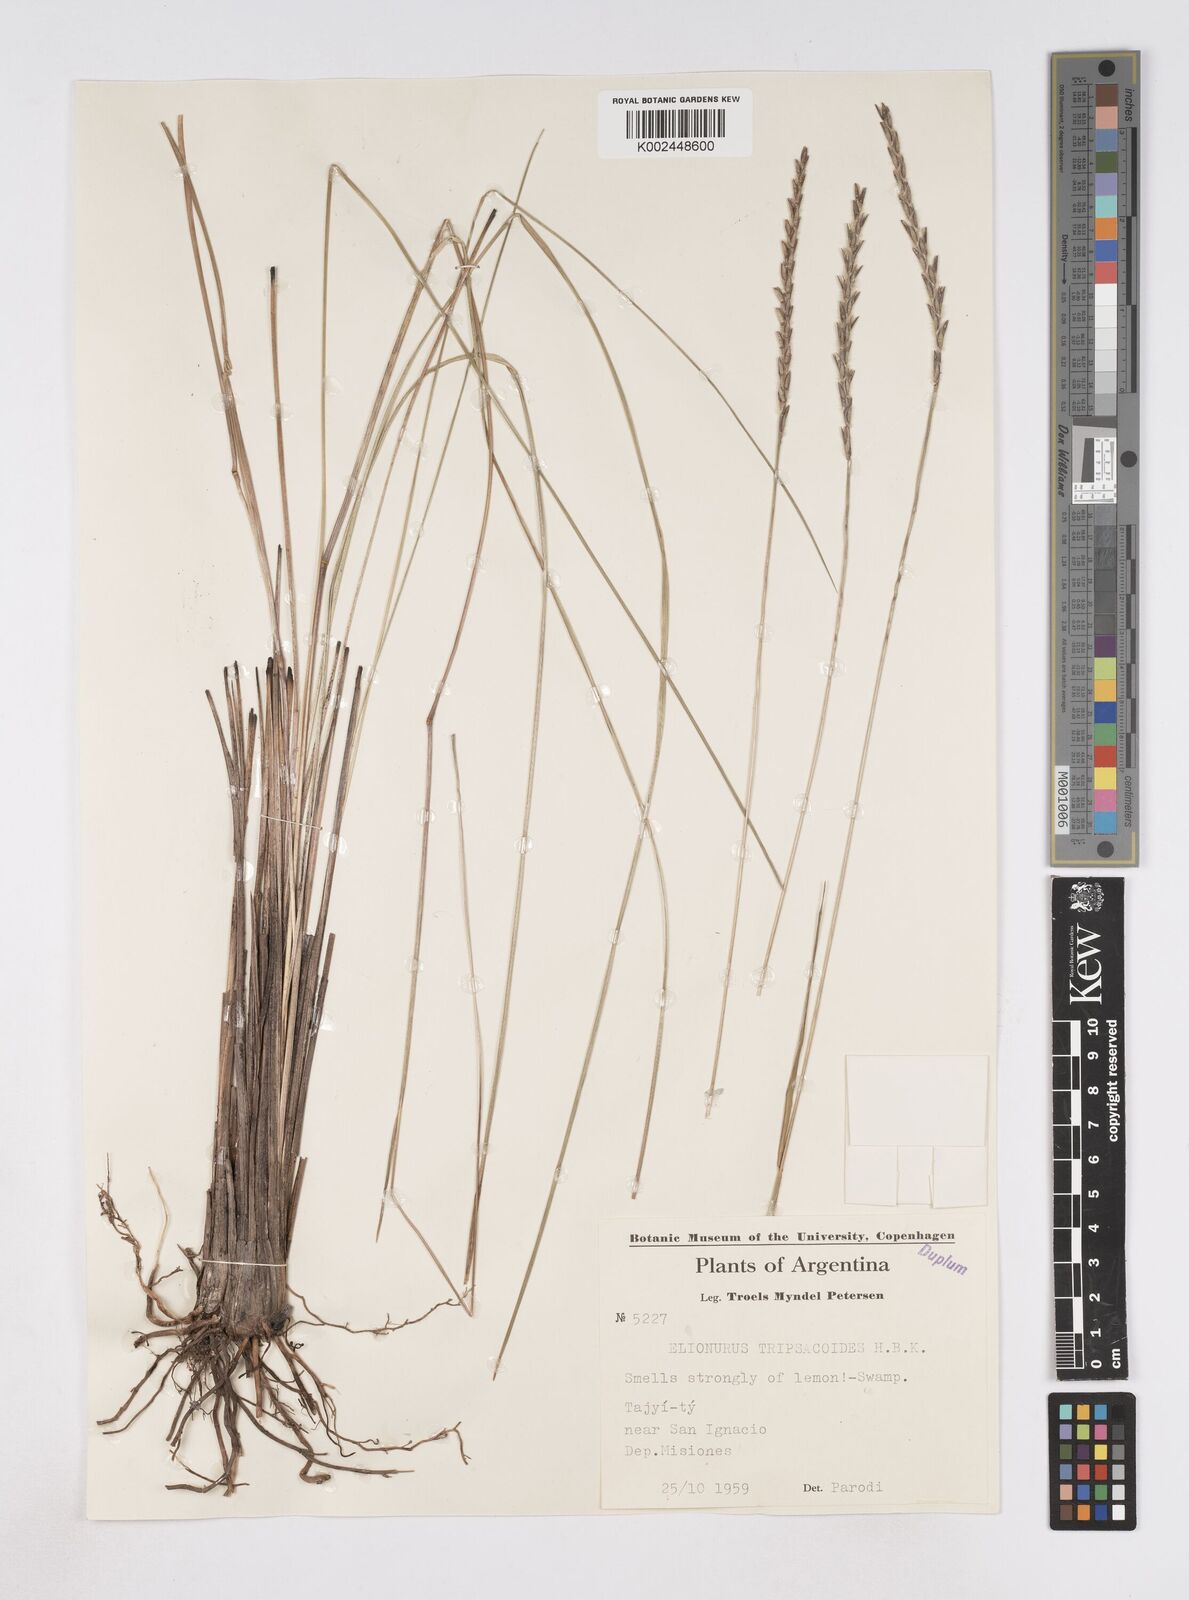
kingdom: Plantae
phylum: Tracheophyta
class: Liliopsida
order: Poales
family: Poaceae
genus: Elionurus
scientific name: Elionurus muticus
